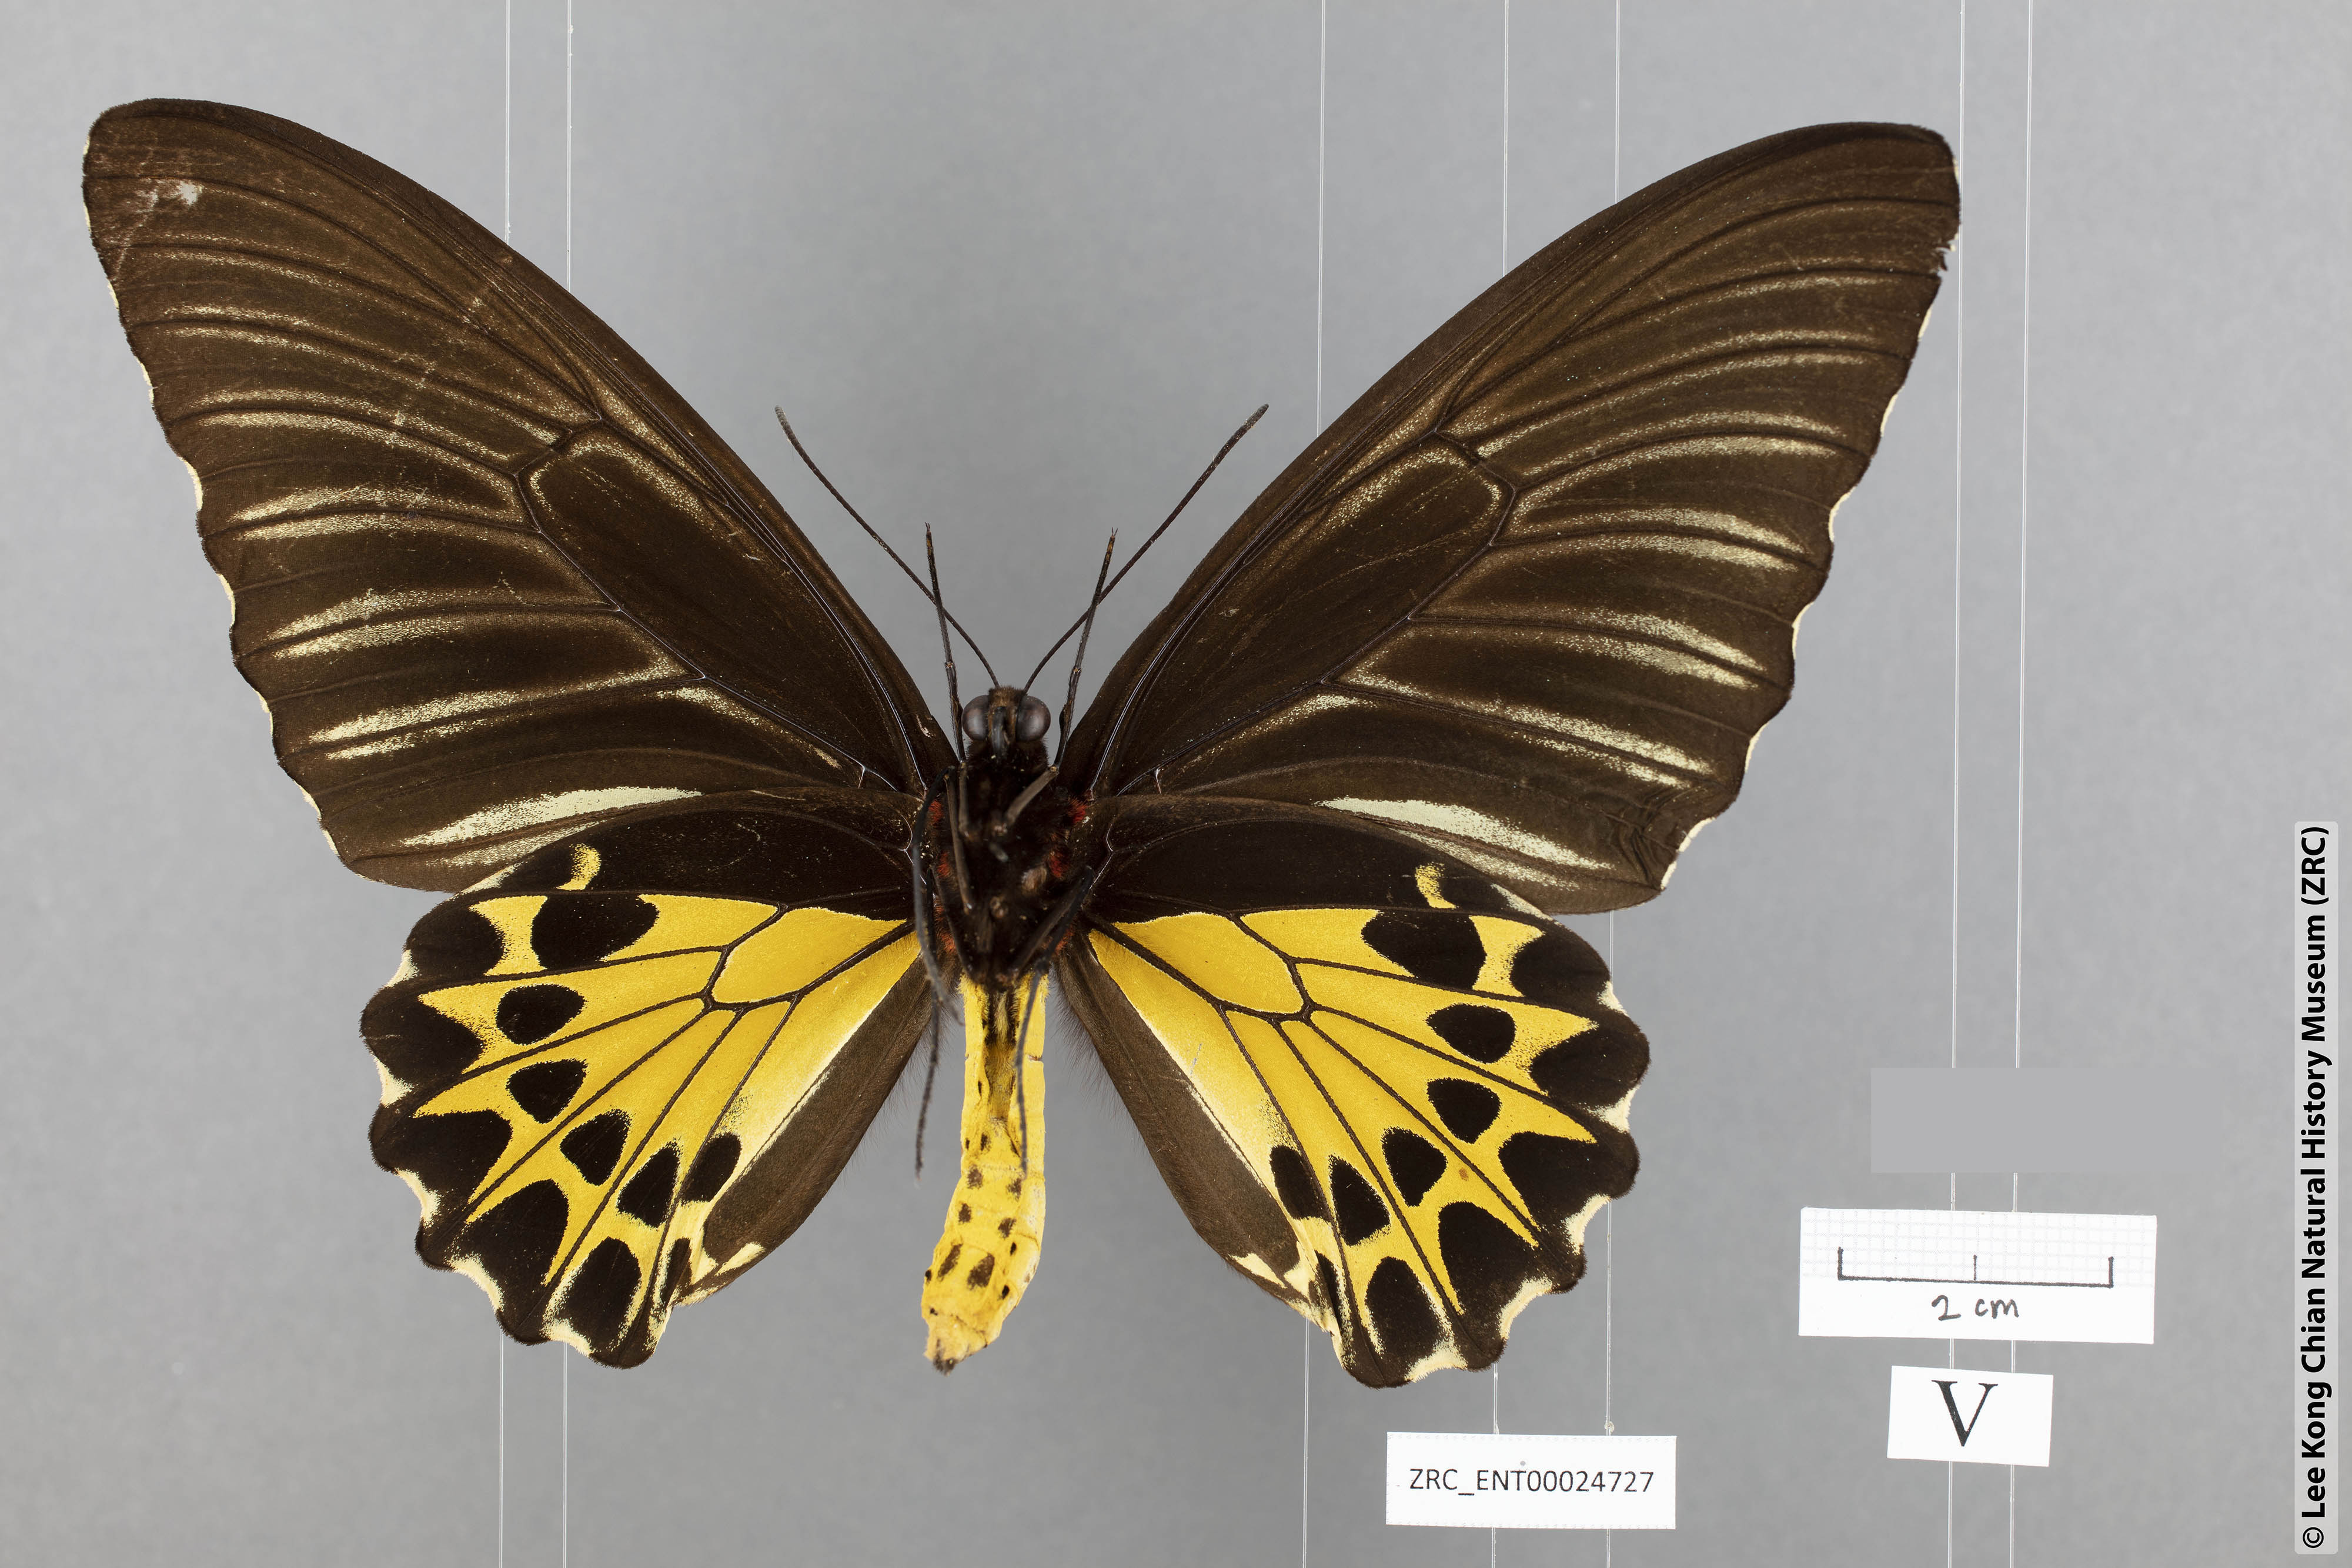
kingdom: Animalia
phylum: Arthropoda
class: Insecta
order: Lepidoptera
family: Papilionidae
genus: Troides
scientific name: Troides helena
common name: Common birdwing
